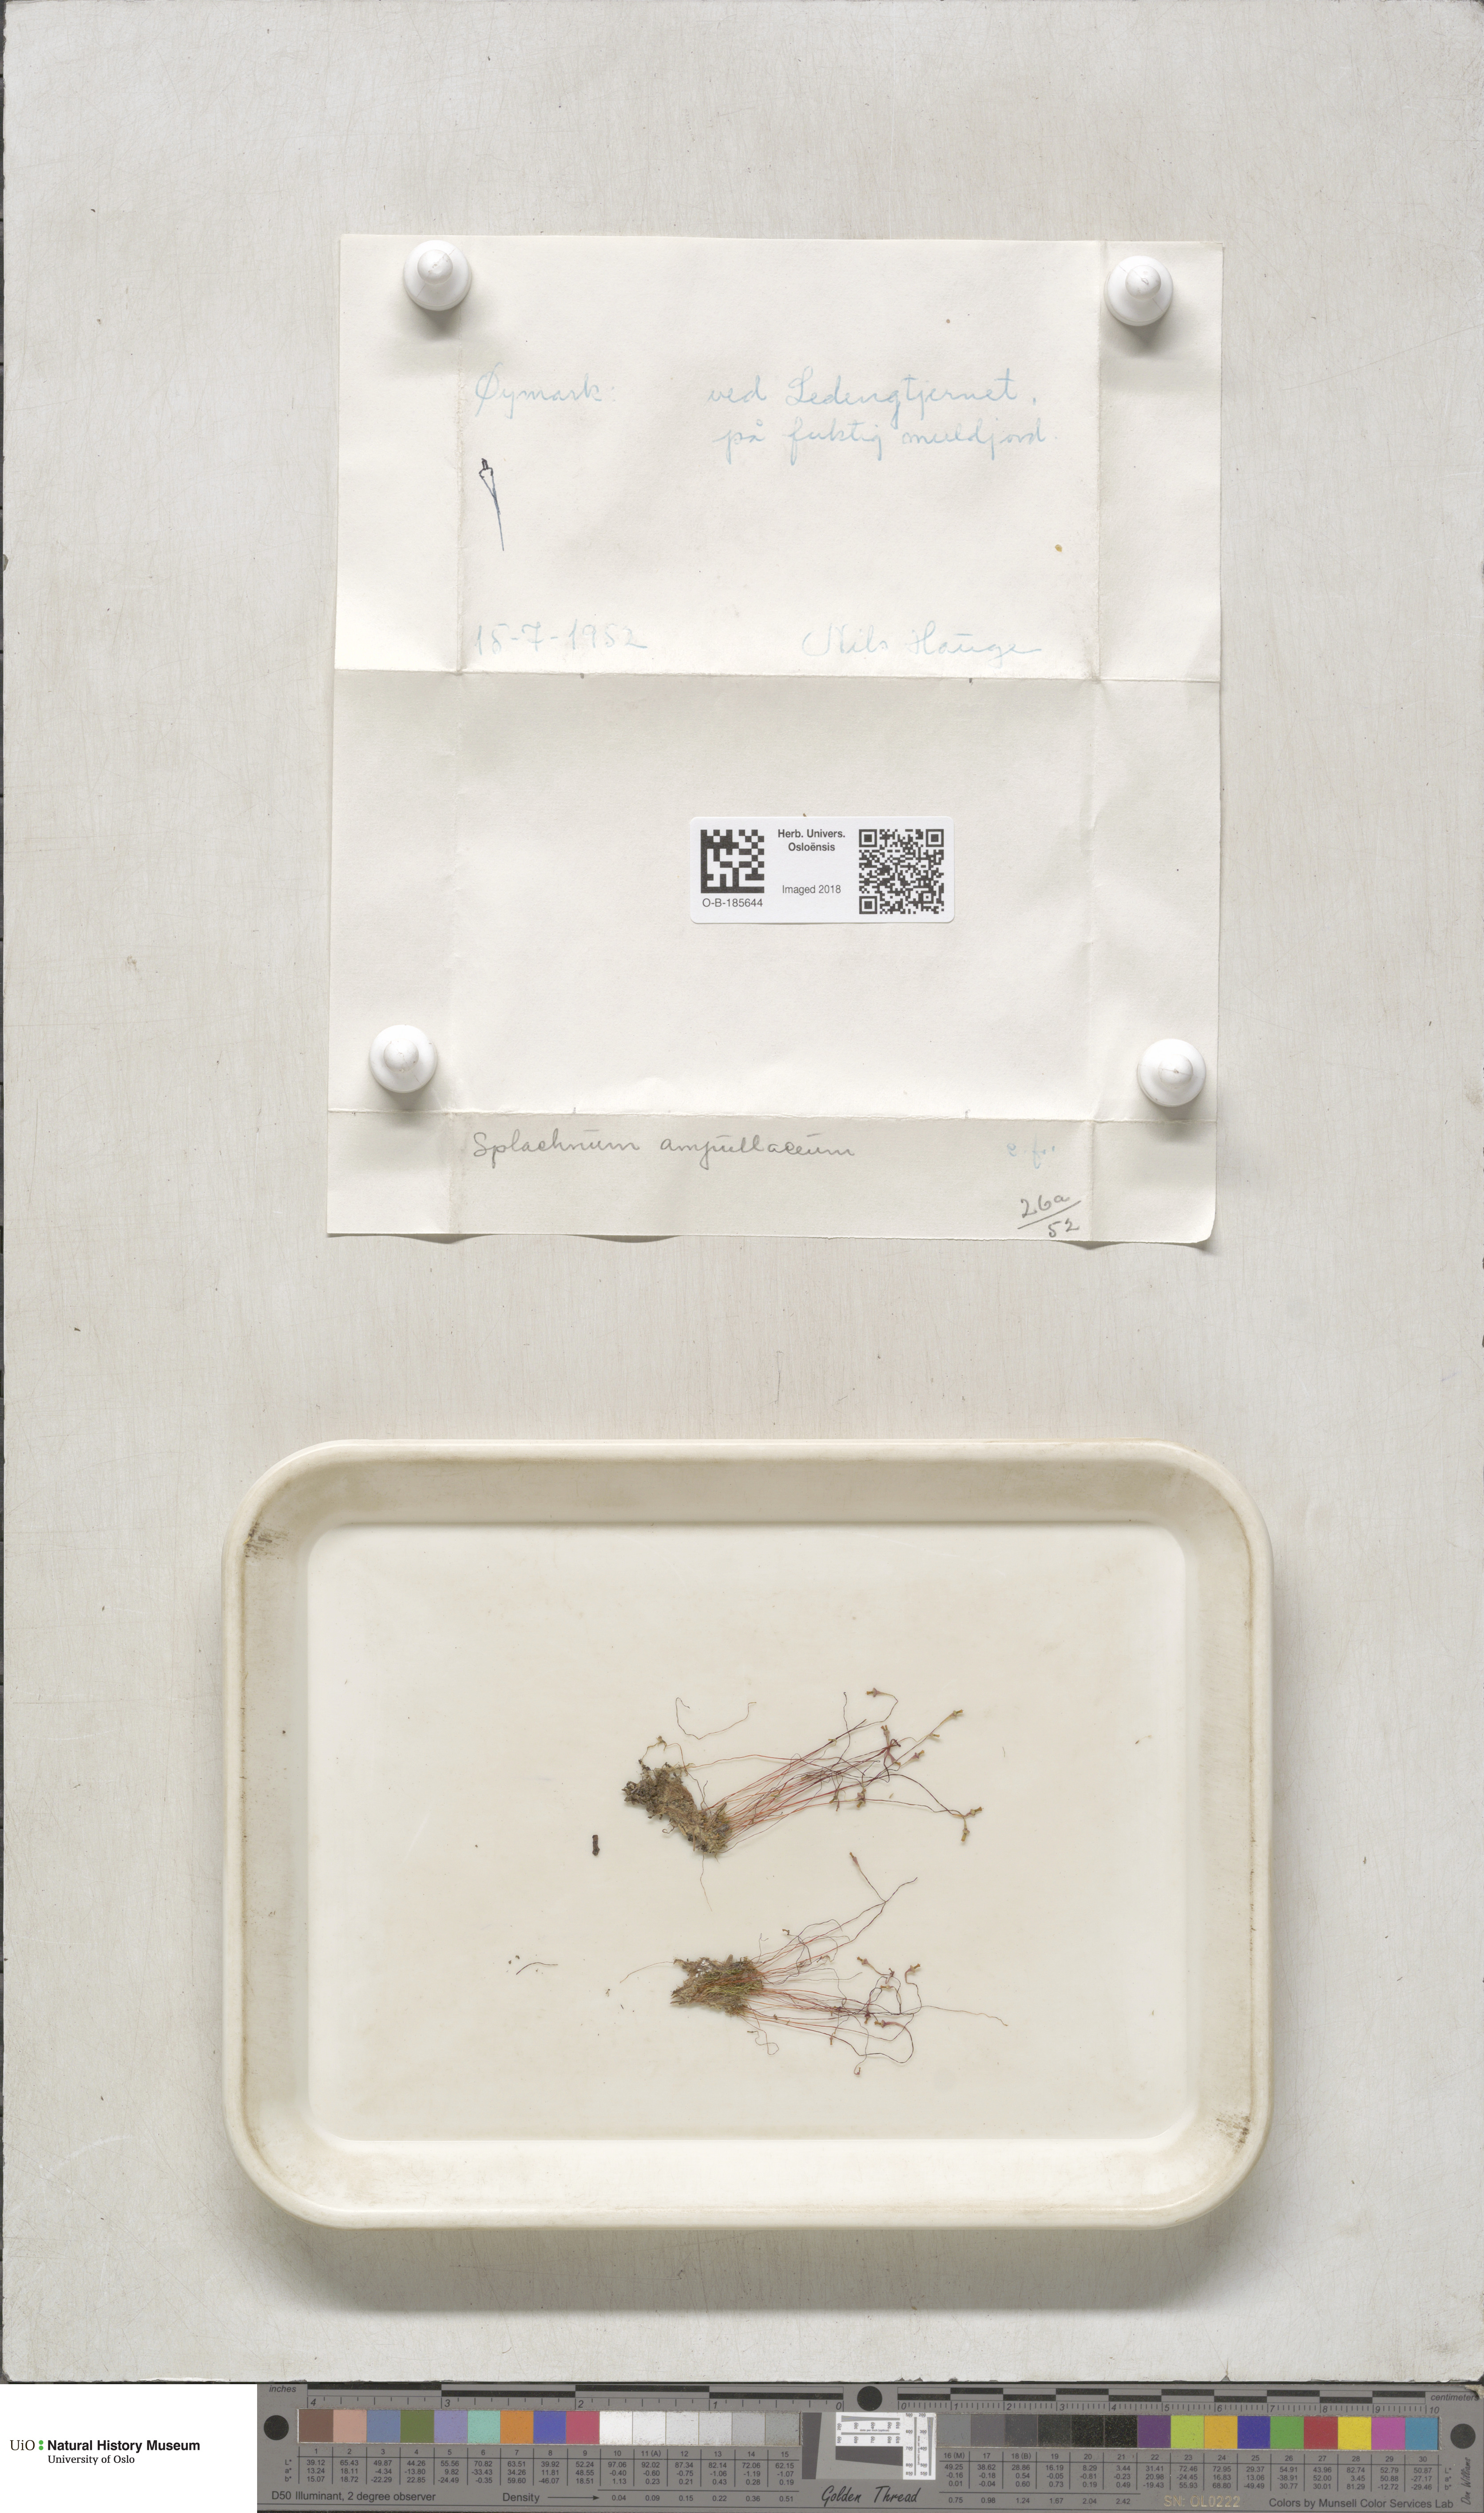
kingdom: Plantae
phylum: Bryophyta
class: Bryopsida
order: Splachnales
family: Splachnaceae
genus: Splachnum
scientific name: Splachnum ampullaceum
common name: Cruet dung moss
